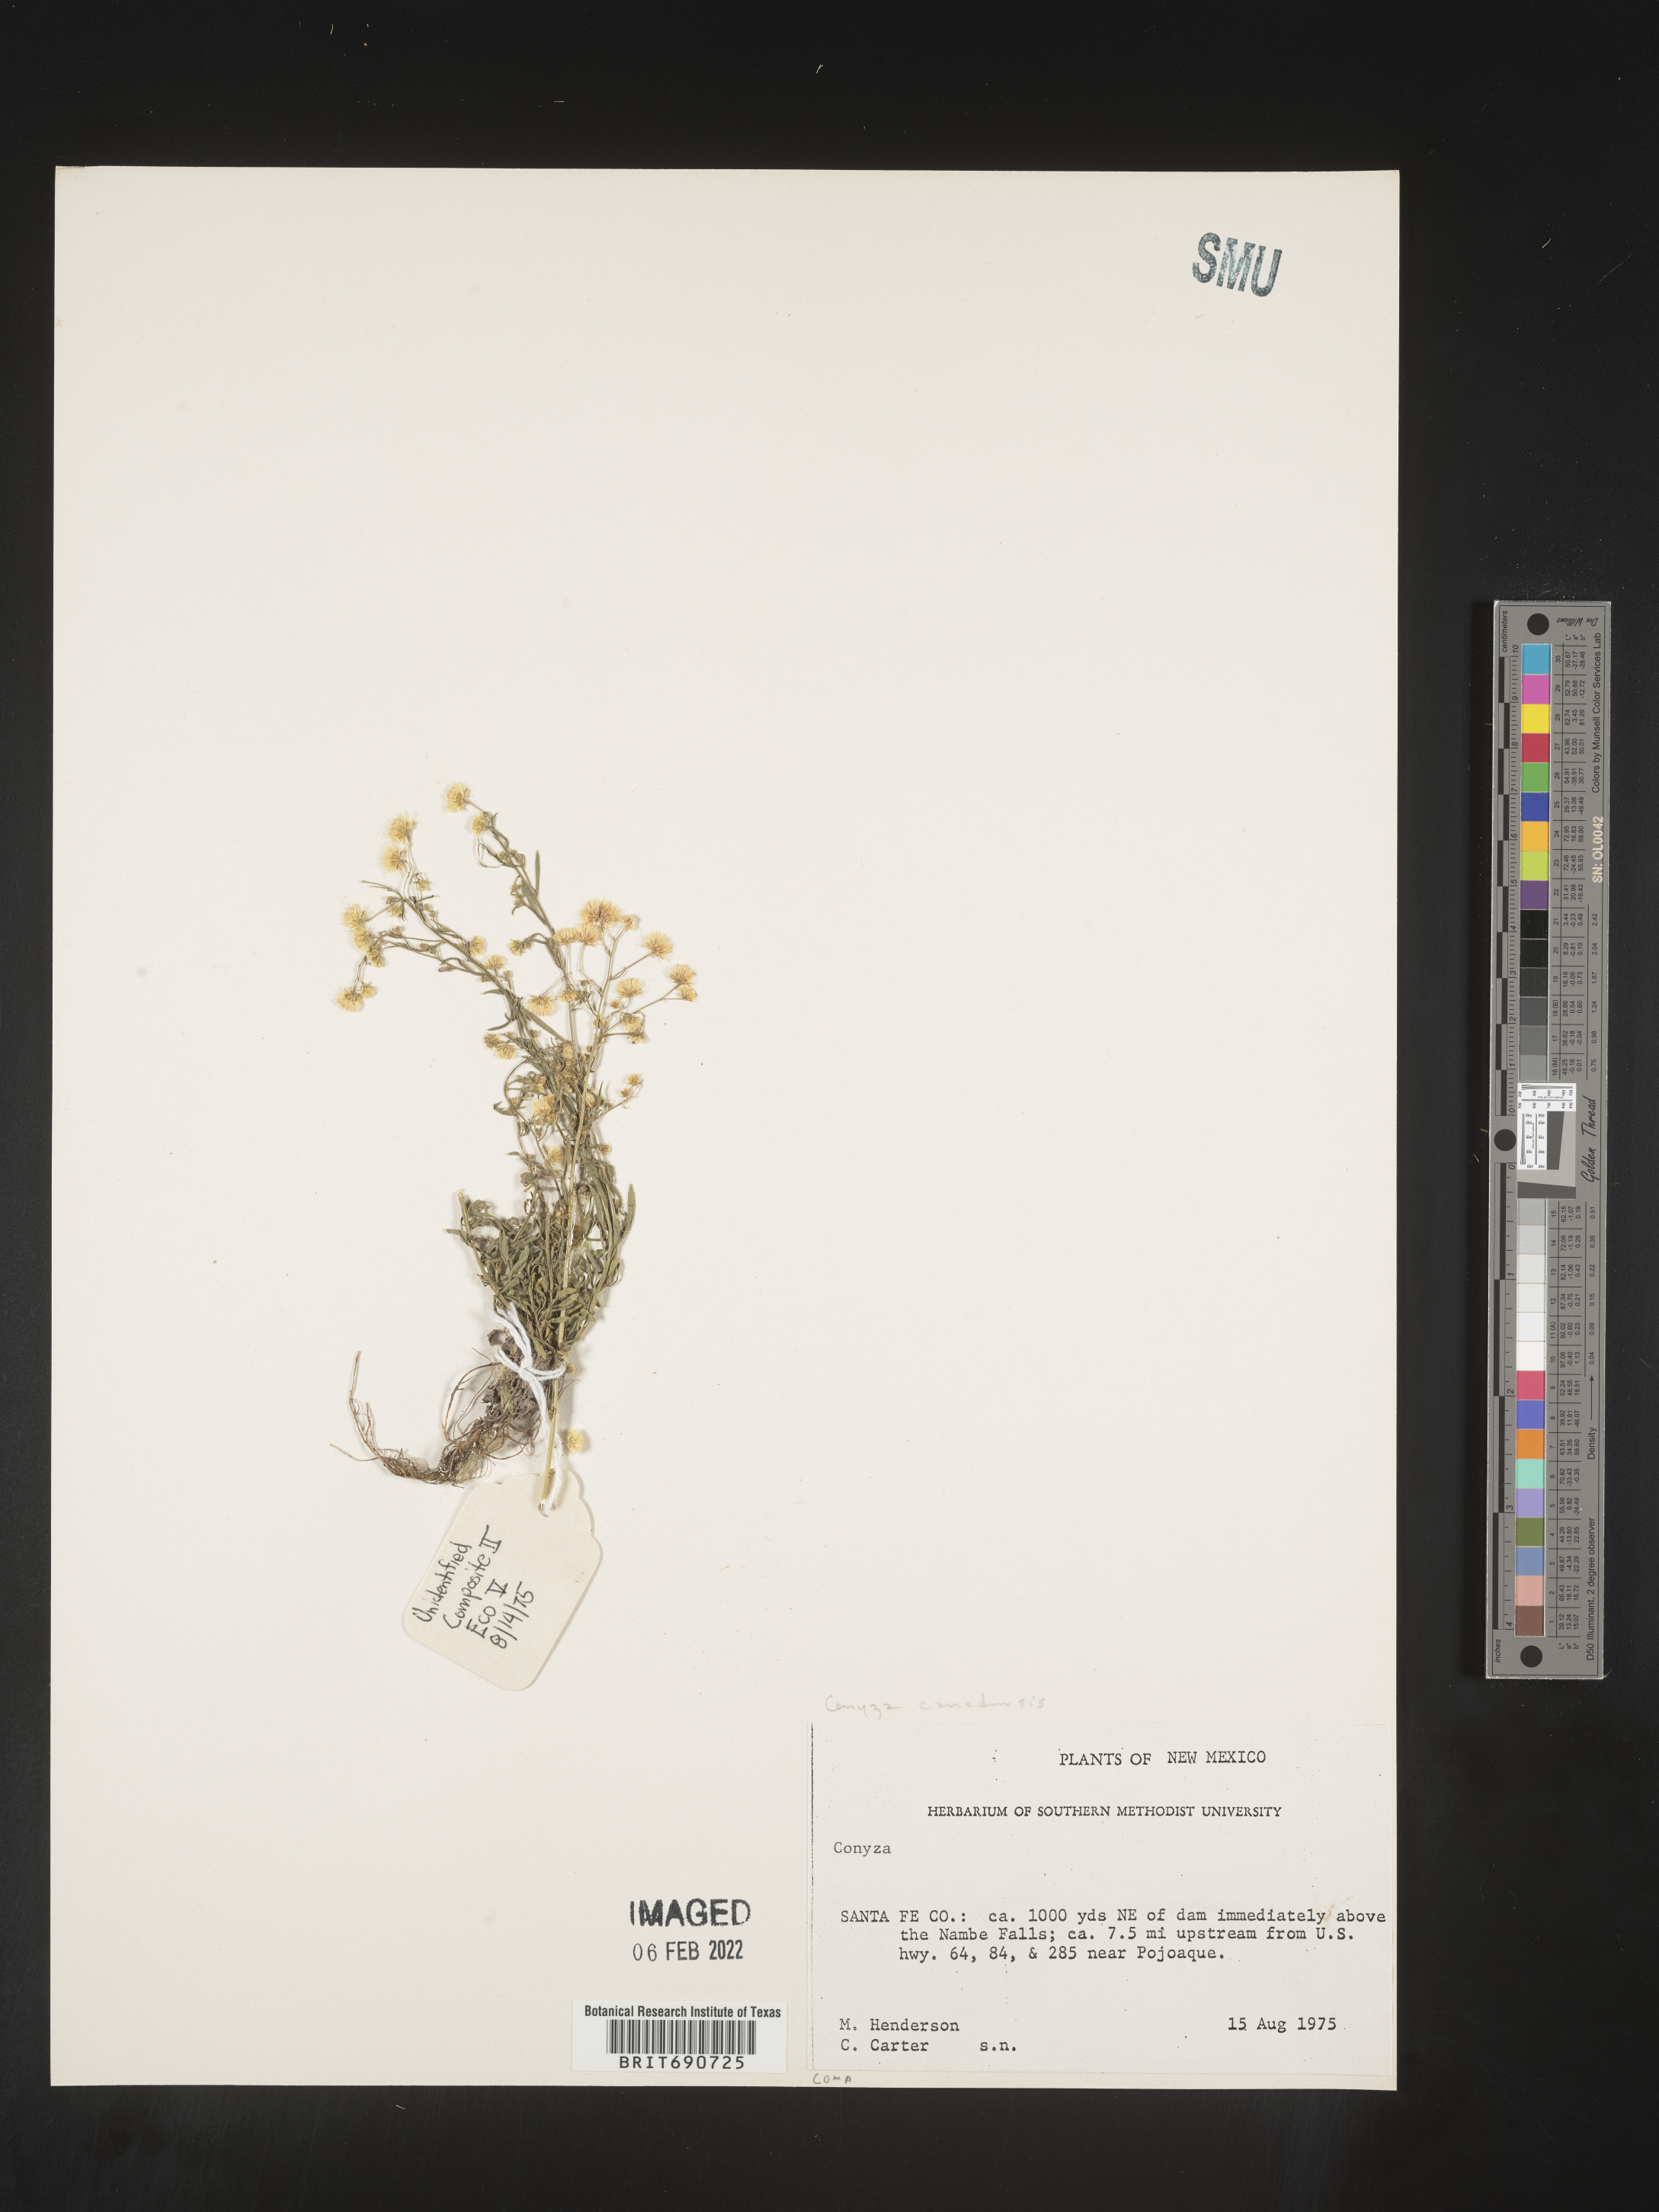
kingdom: Plantae
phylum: Tracheophyta
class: Magnoliopsida
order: Asterales
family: Asteraceae
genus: Erigeron
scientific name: Erigeron canadensis
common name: Canadian fleabane
